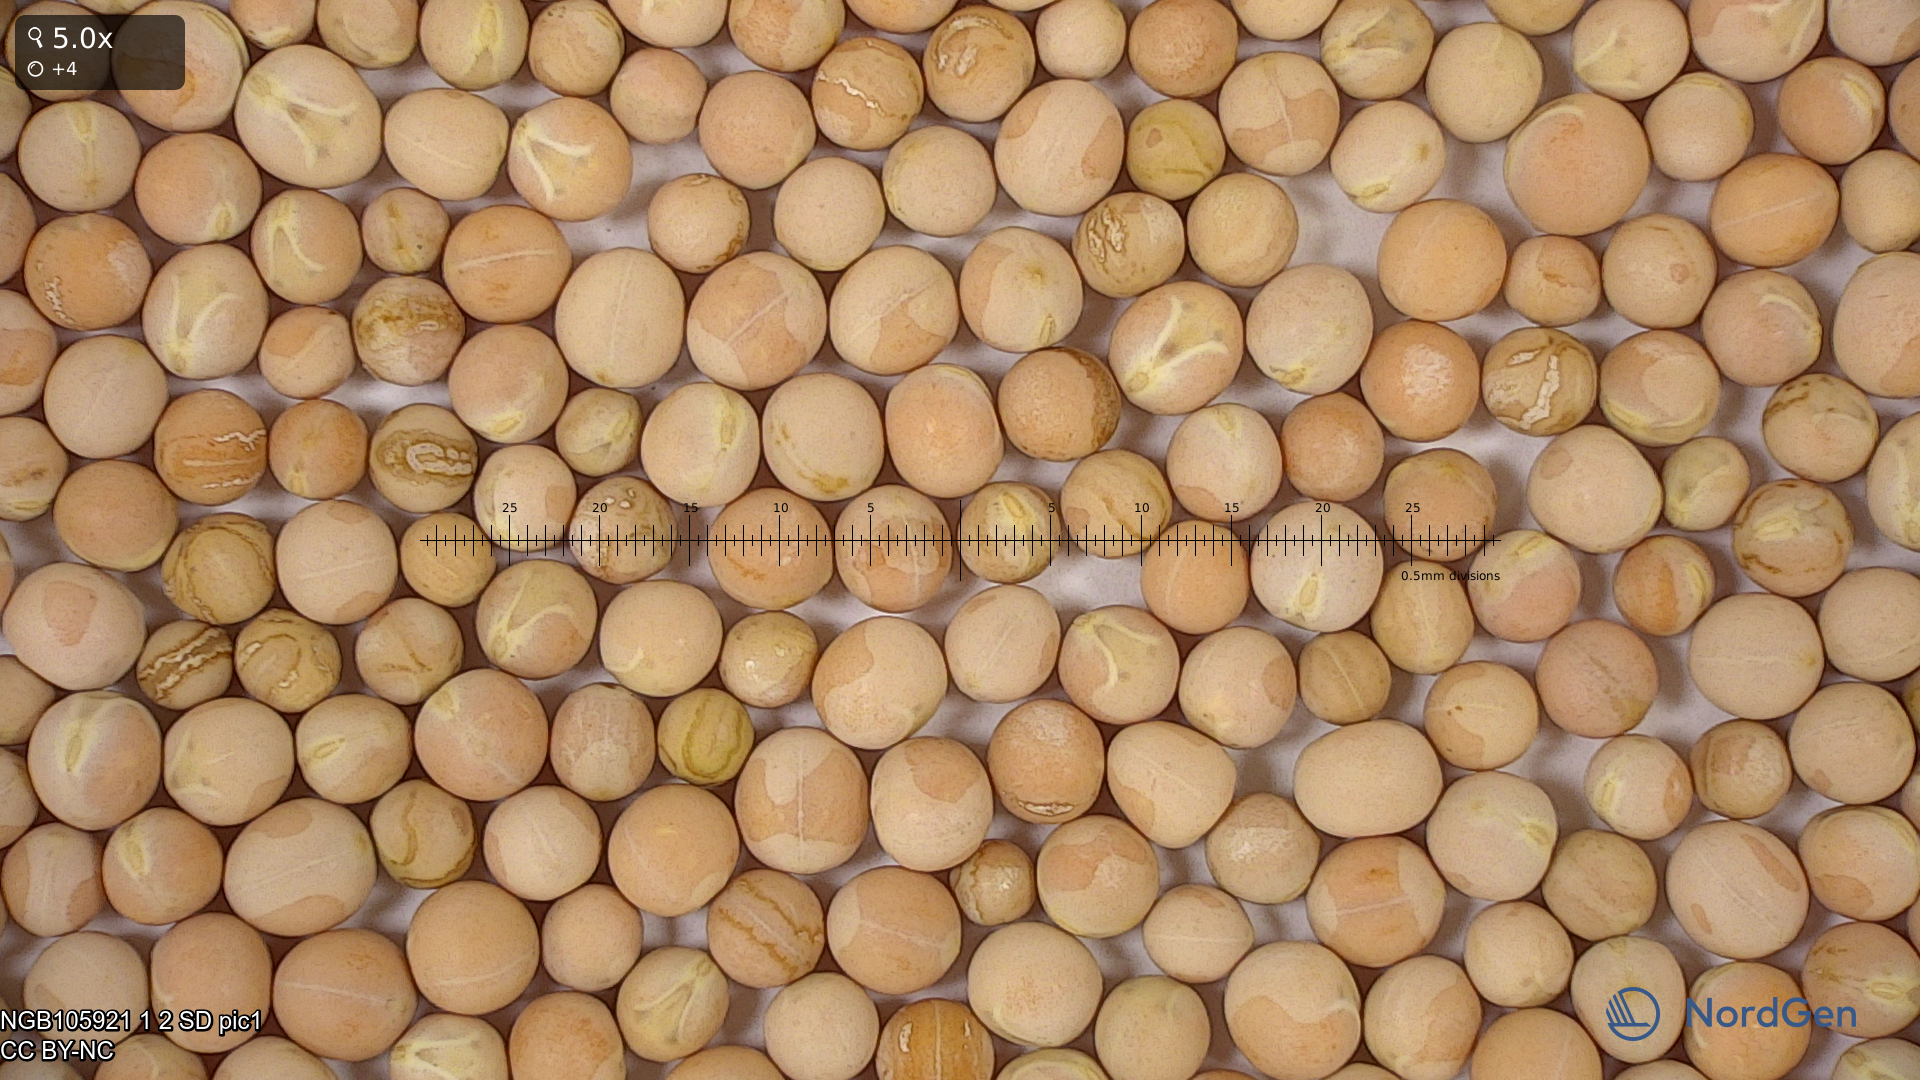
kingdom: Plantae
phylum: Tracheophyta
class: Magnoliopsida
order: Fabales
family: Fabaceae
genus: Lathyrus
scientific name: Lathyrus oleraceus
